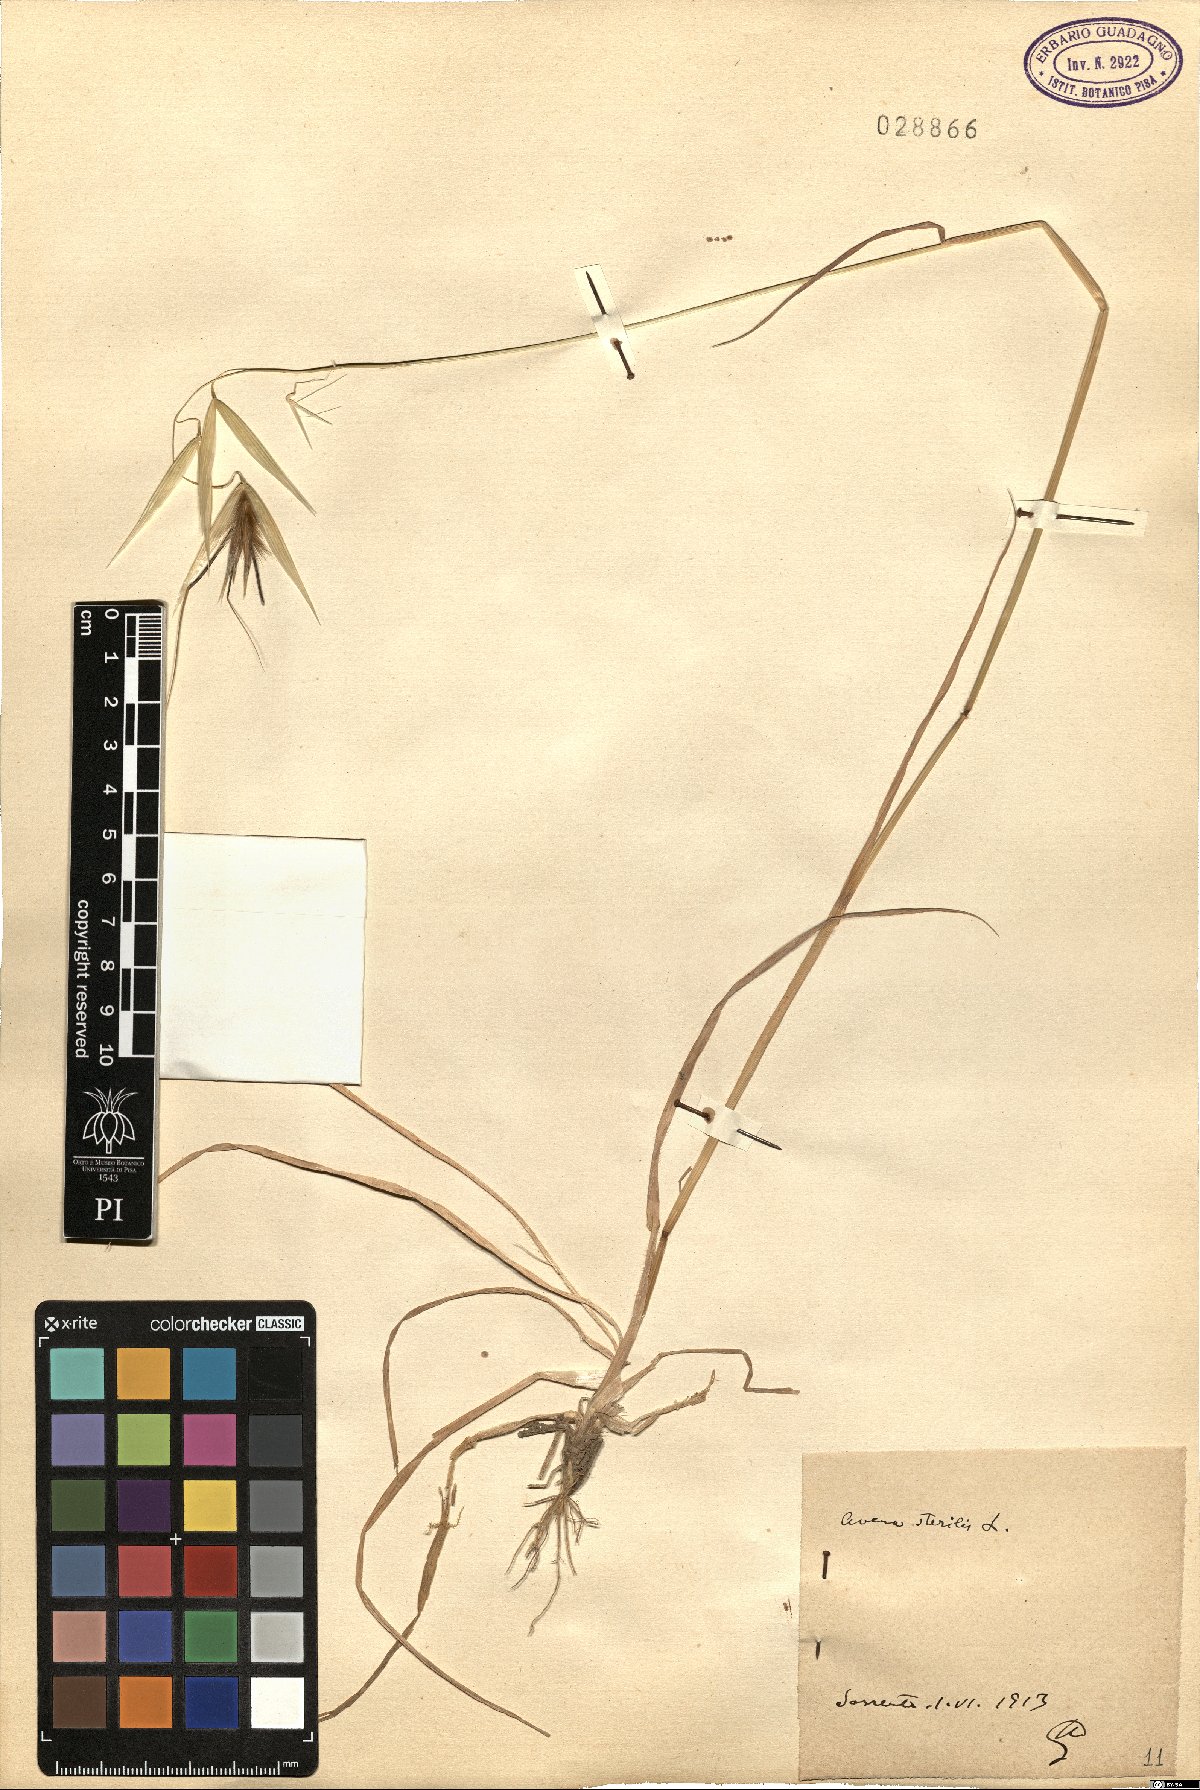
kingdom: Plantae
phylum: Tracheophyta
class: Liliopsida
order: Poales
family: Poaceae
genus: Avena
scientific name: Avena sterilis
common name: Animated oat
